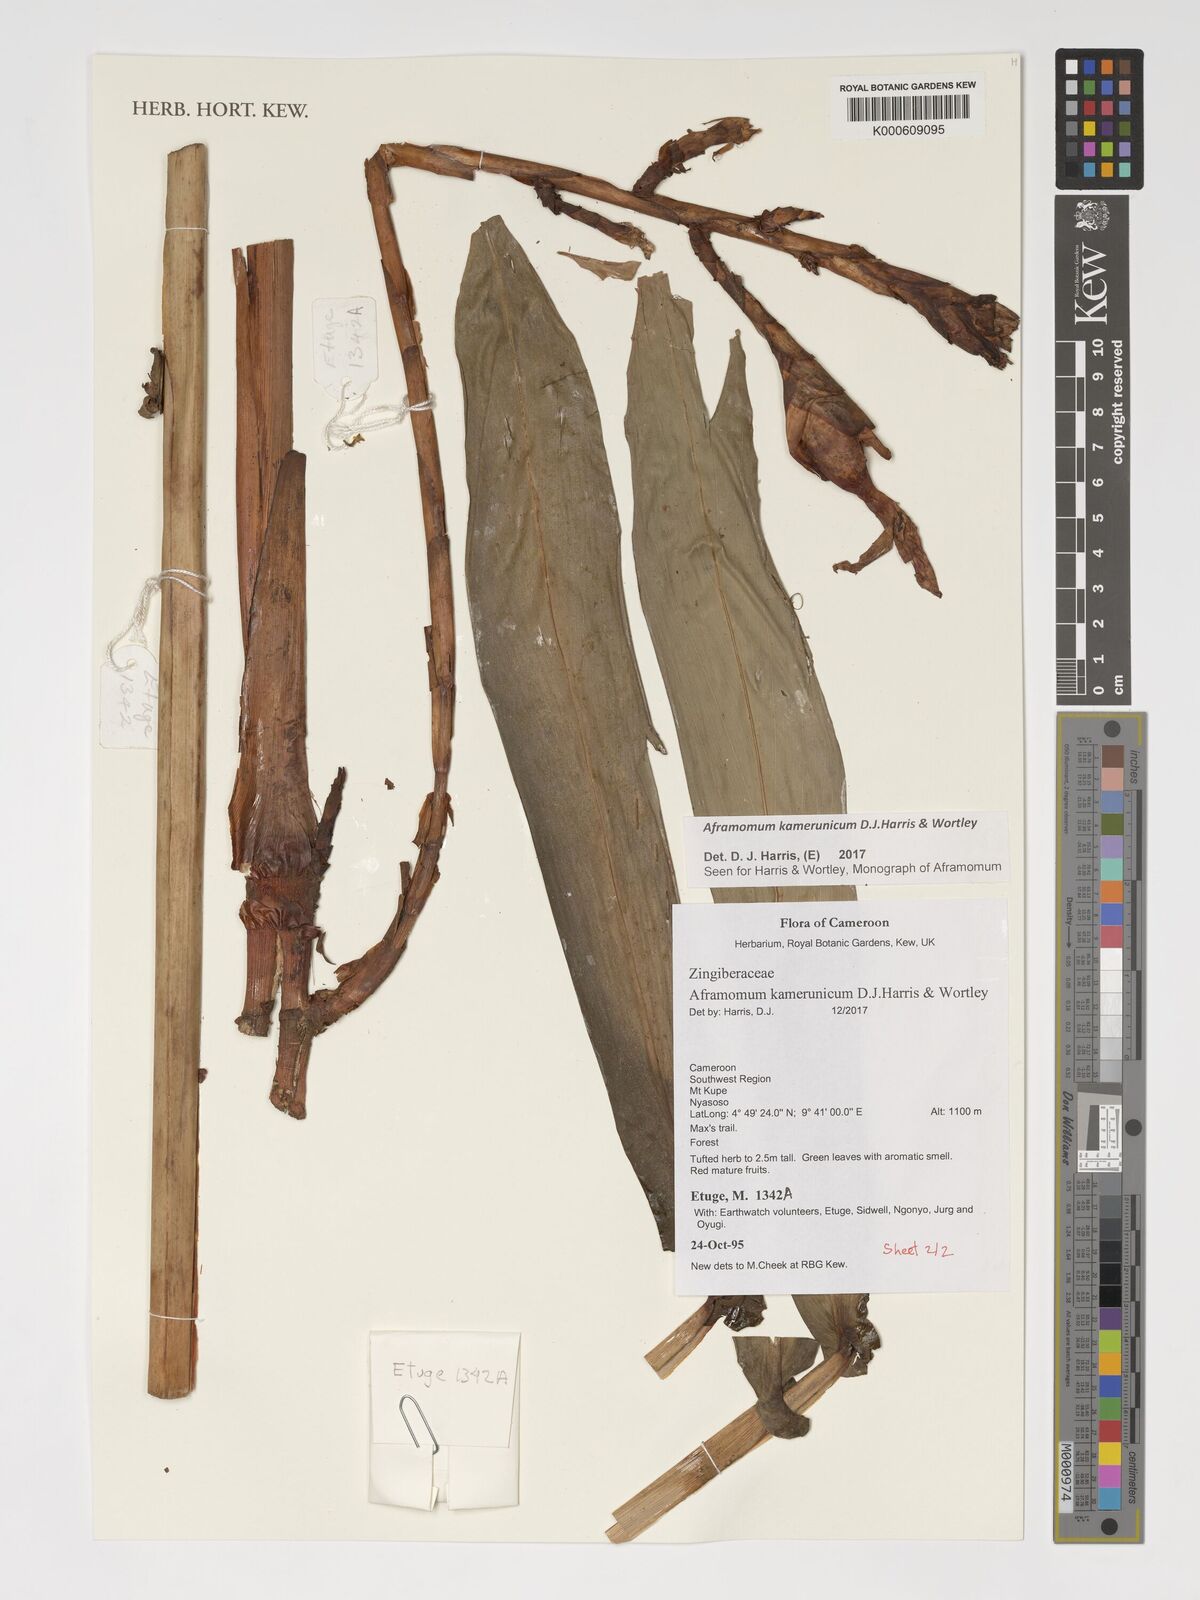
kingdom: Plantae
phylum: Tracheophyta
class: Liliopsida
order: Zingiberales
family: Zingiberaceae
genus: Aframomum
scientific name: Aframomum kamerunicum
